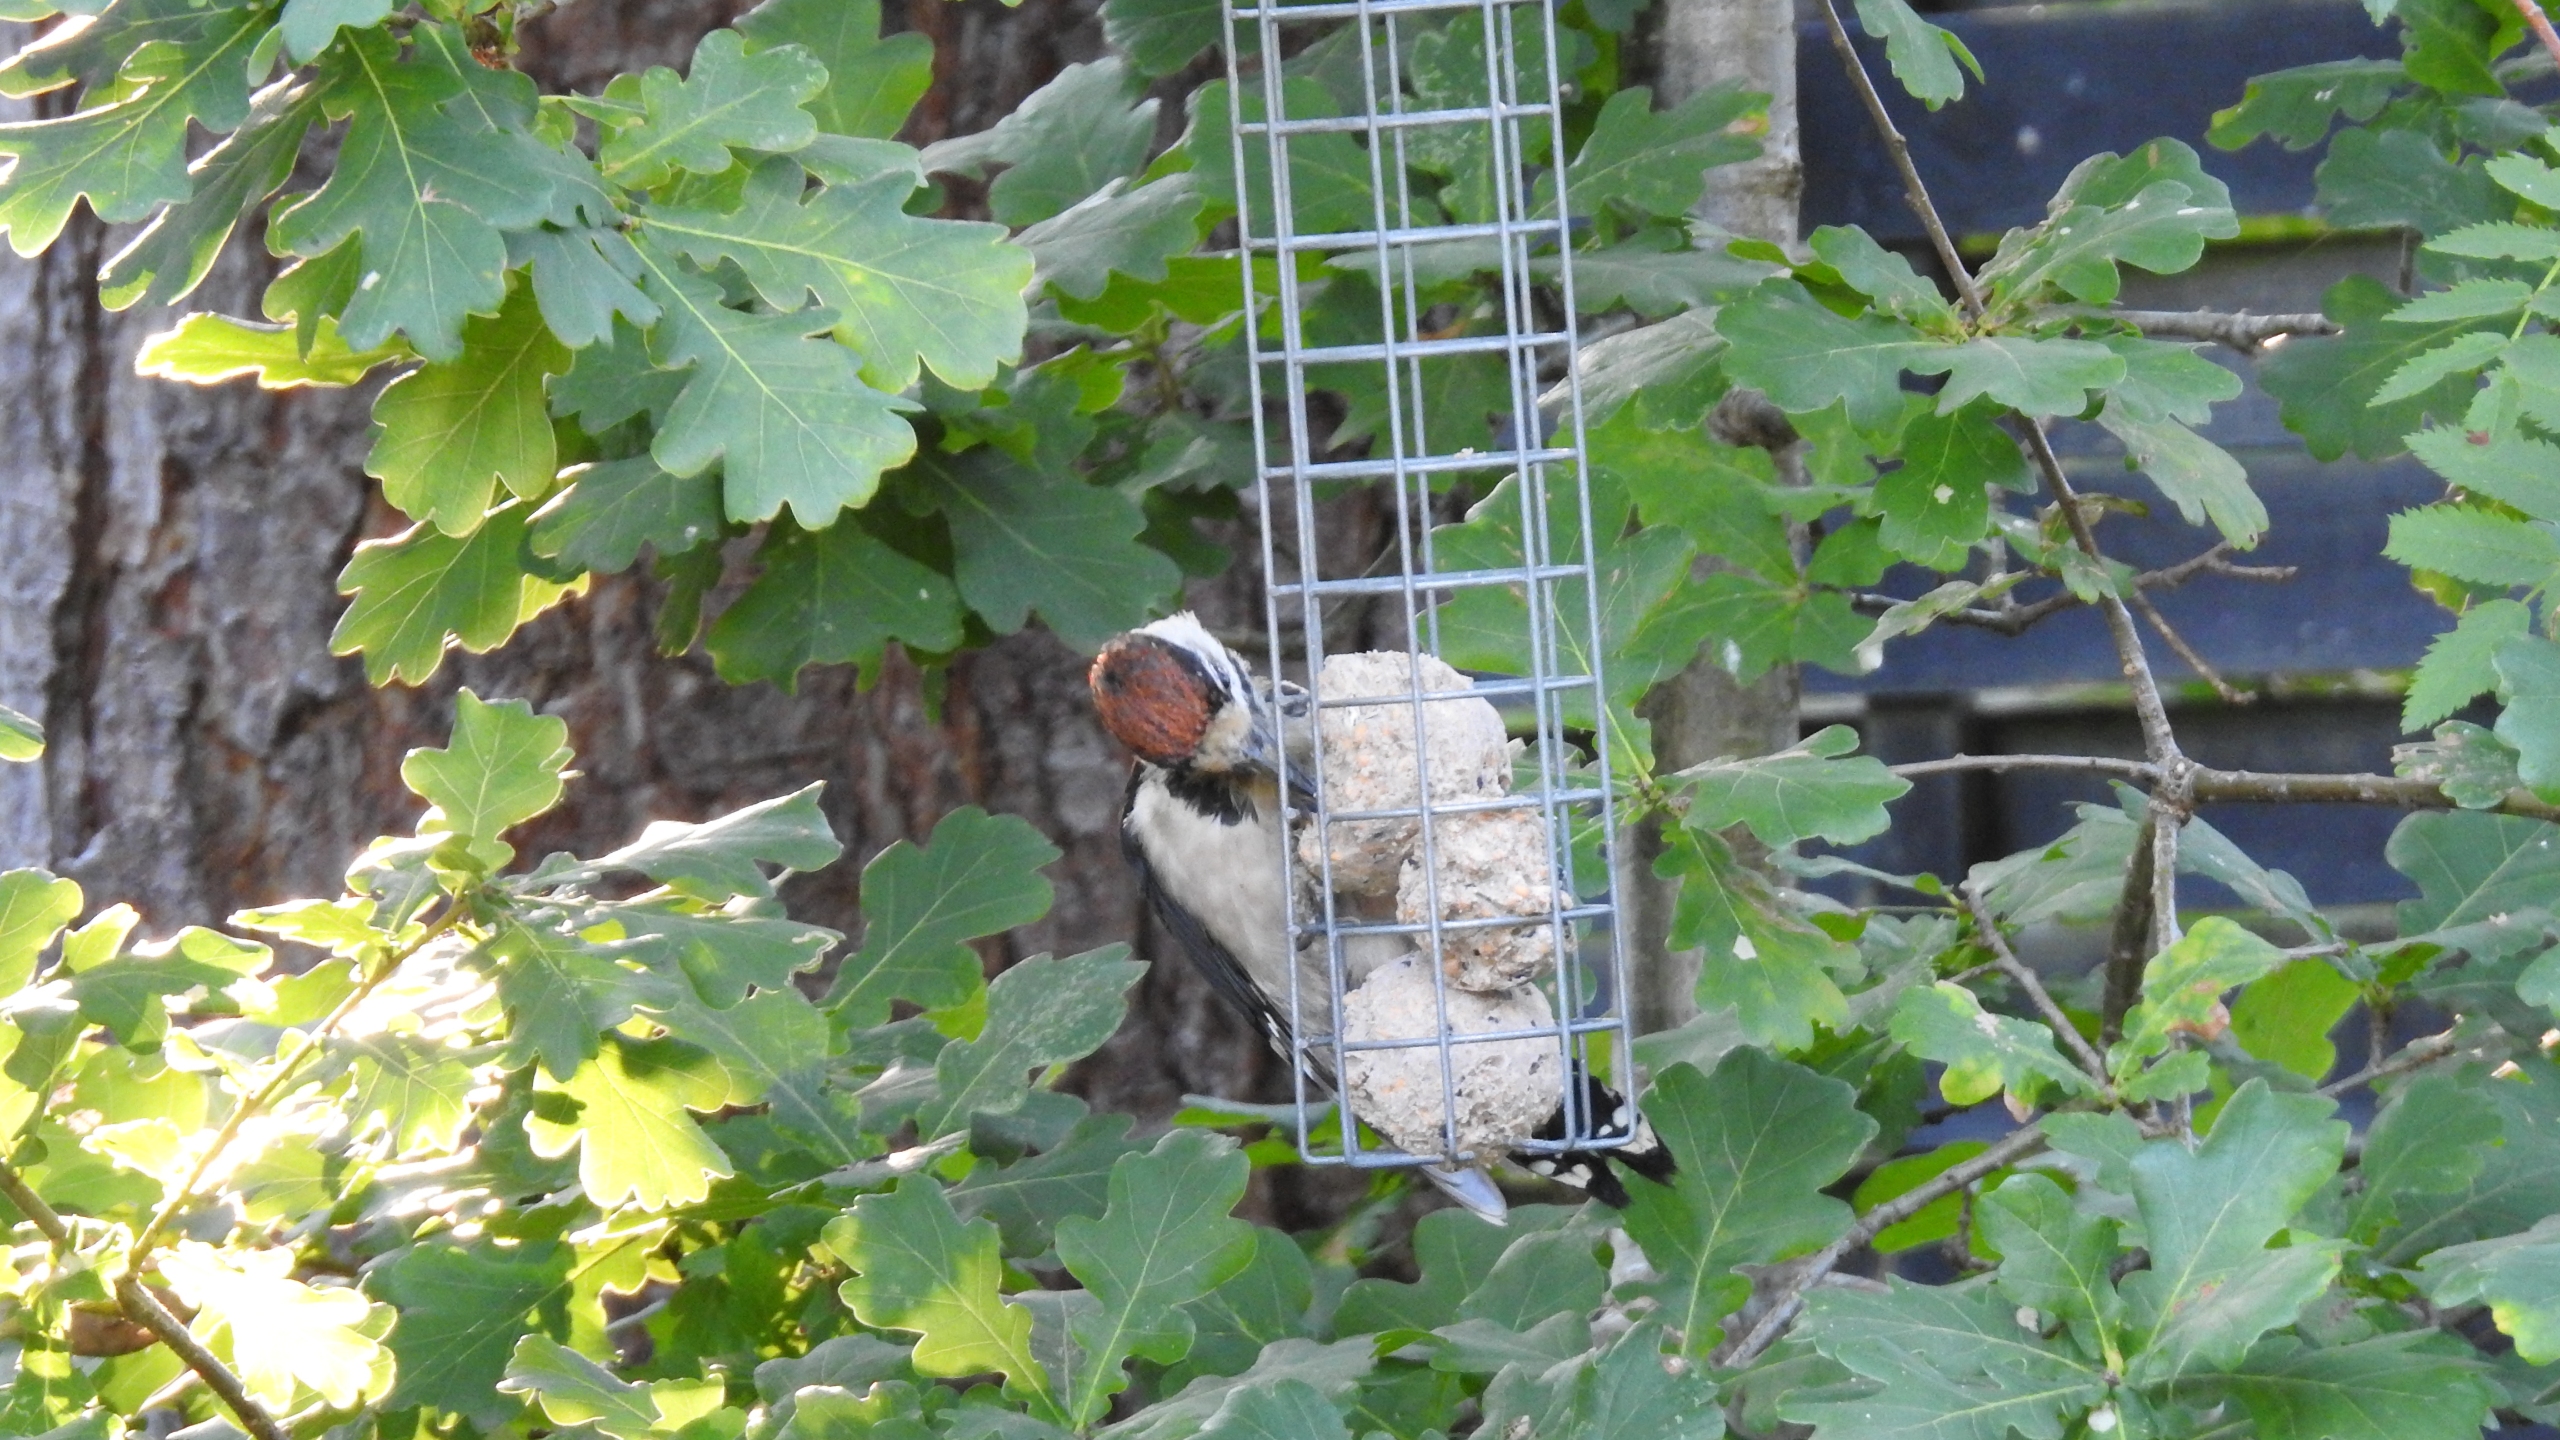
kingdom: Animalia
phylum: Chordata
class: Aves
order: Piciformes
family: Picidae
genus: Dendrocopos
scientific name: Dendrocopos major
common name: Stor flagspætte
